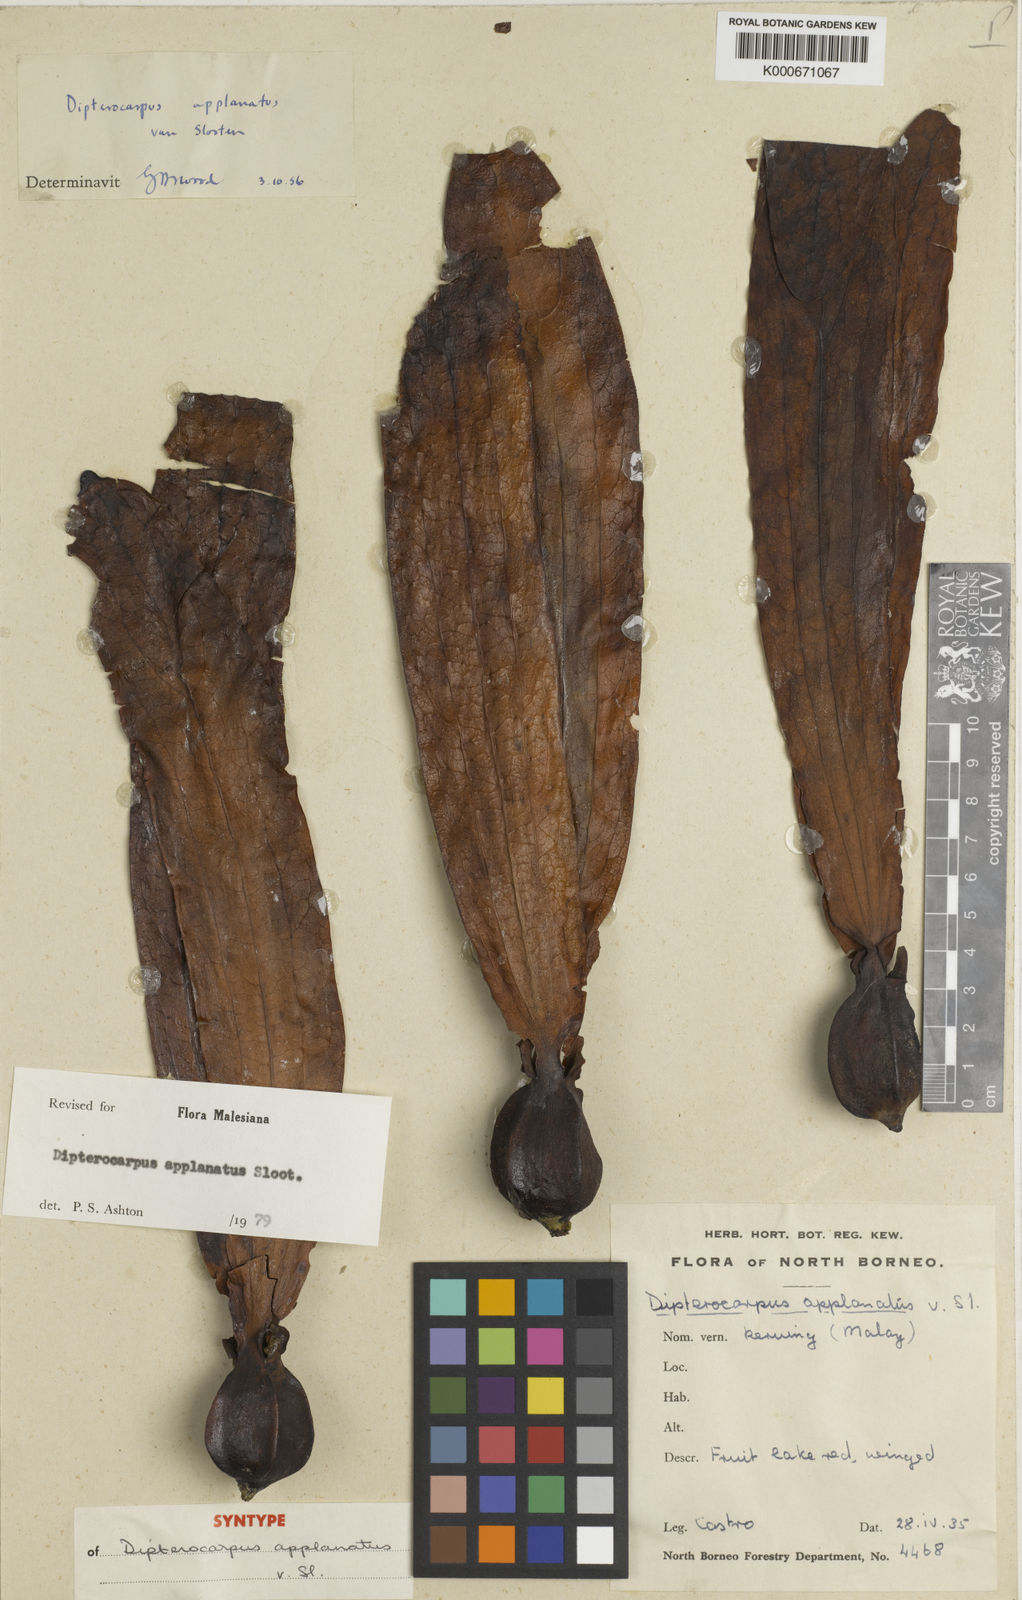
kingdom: Plantae
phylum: Tracheophyta
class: Magnoliopsida
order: Malvales
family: Dipterocarpaceae
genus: Dipterocarpus
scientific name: Dipterocarpus applanatus
